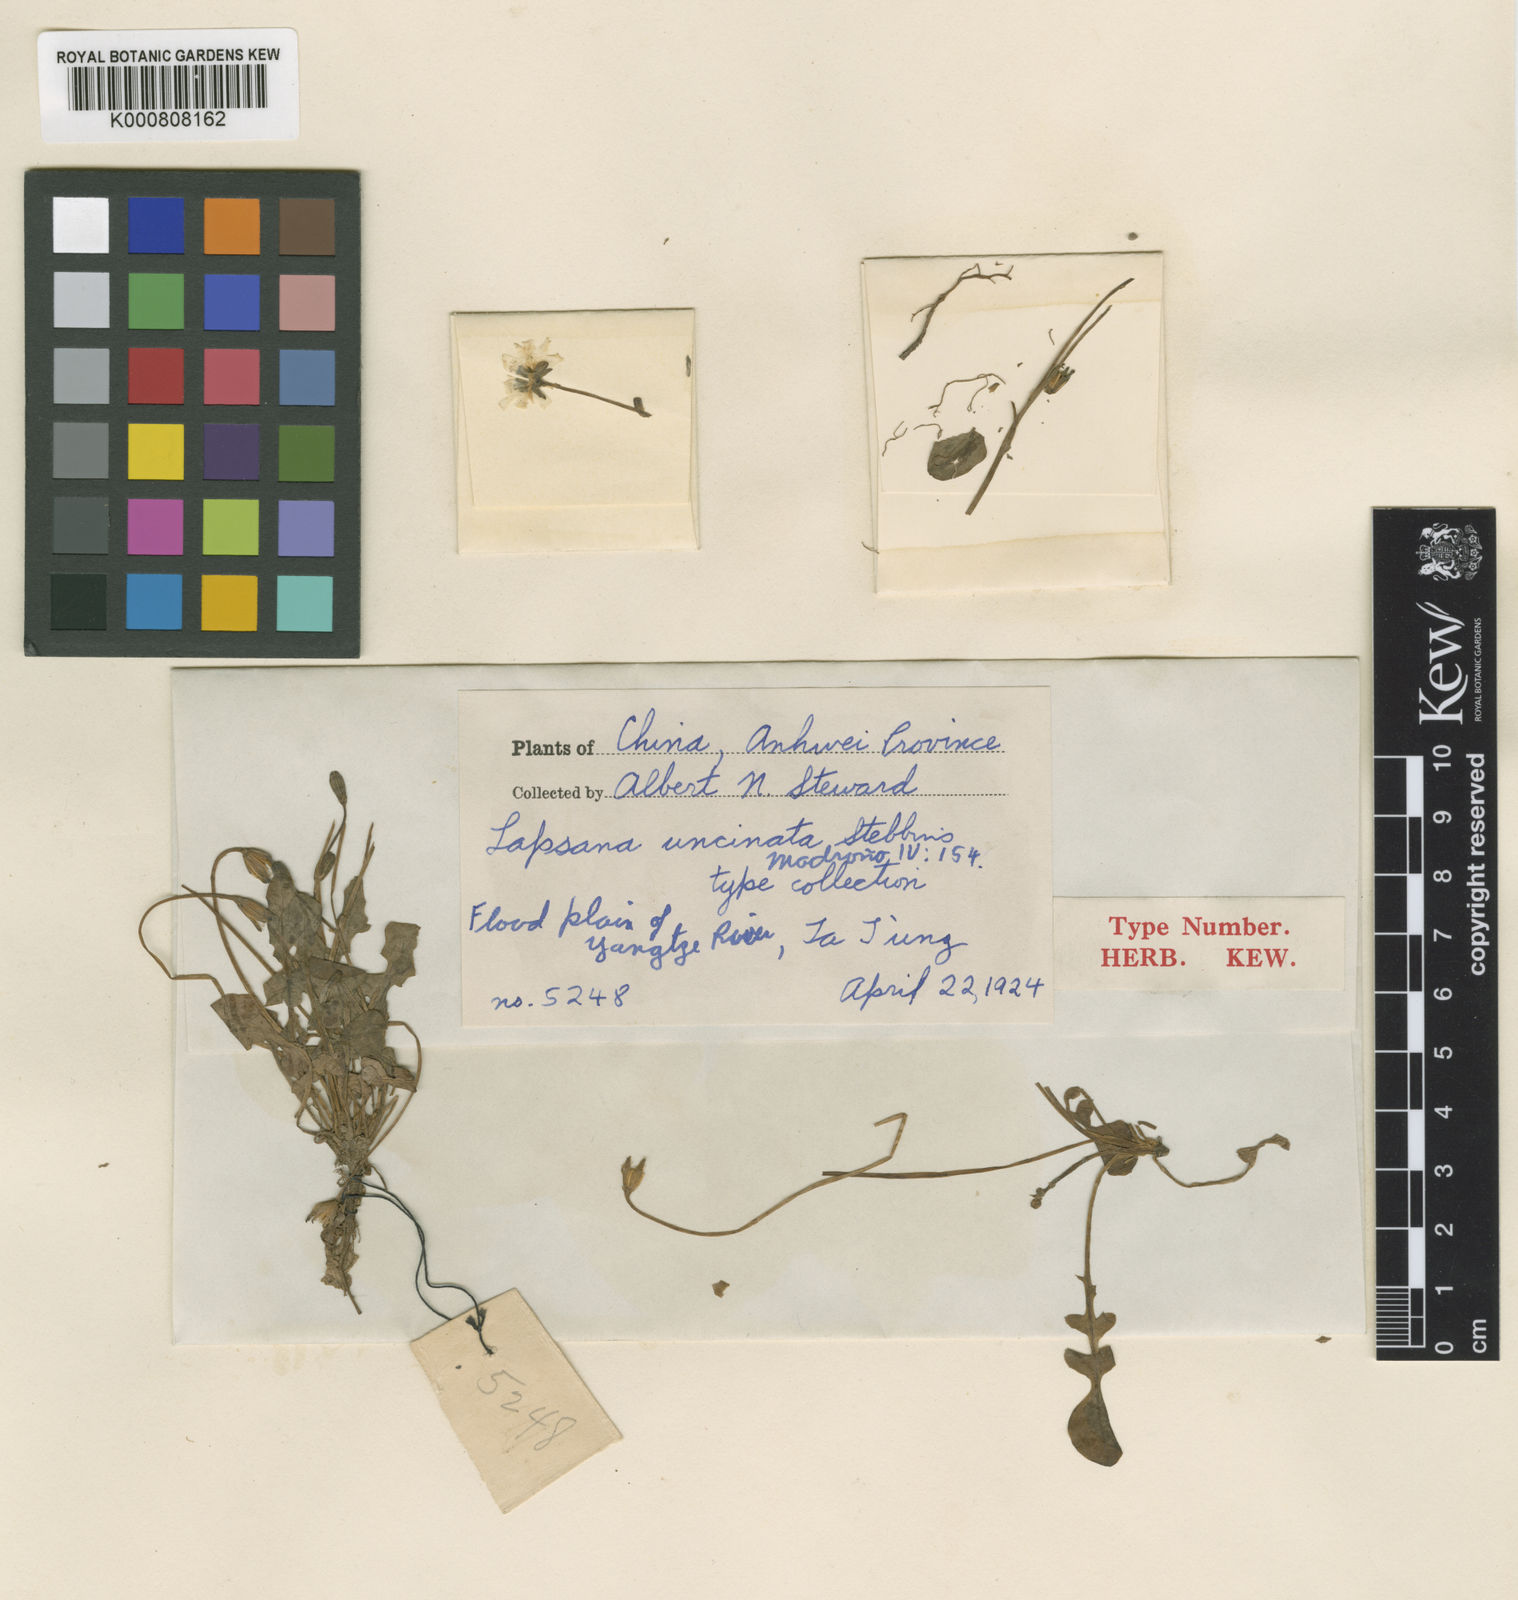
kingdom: Plantae
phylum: Tracheophyta
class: Magnoliopsida
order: Asterales
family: Asteraceae
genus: Lapsanastrum
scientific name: Lapsanastrum uncinatum
